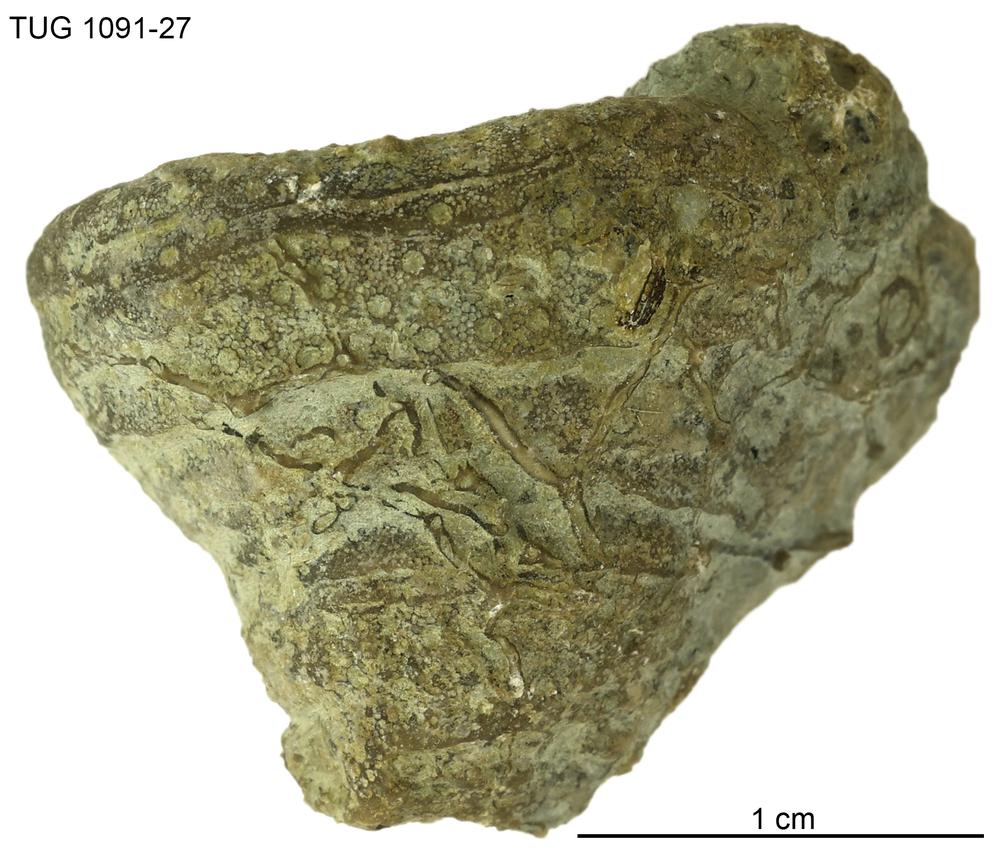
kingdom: Animalia
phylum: Cnidaria
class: Anthozoa
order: Heliolitina
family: Heliolitidae
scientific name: Heliolitidae
